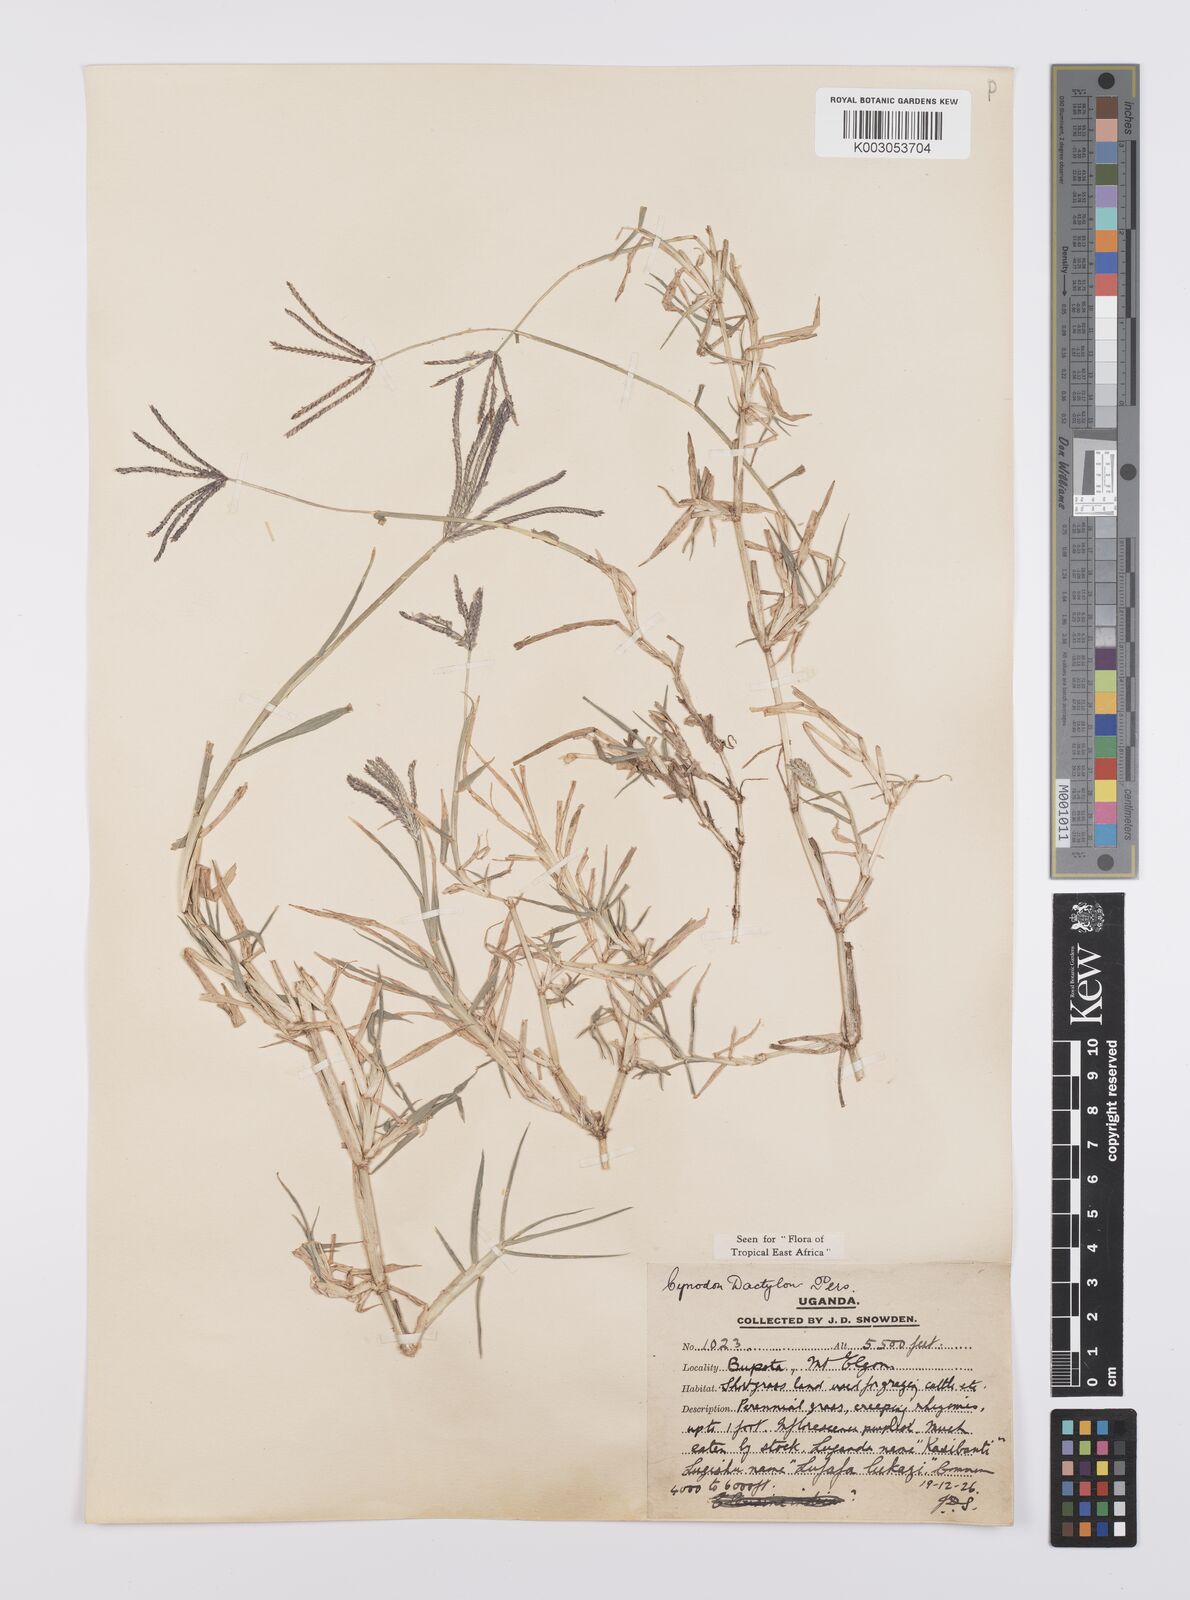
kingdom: Plantae
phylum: Tracheophyta
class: Liliopsida
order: Poales
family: Poaceae
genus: Cynodon
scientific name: Cynodon dactylon
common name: Bermuda grass
